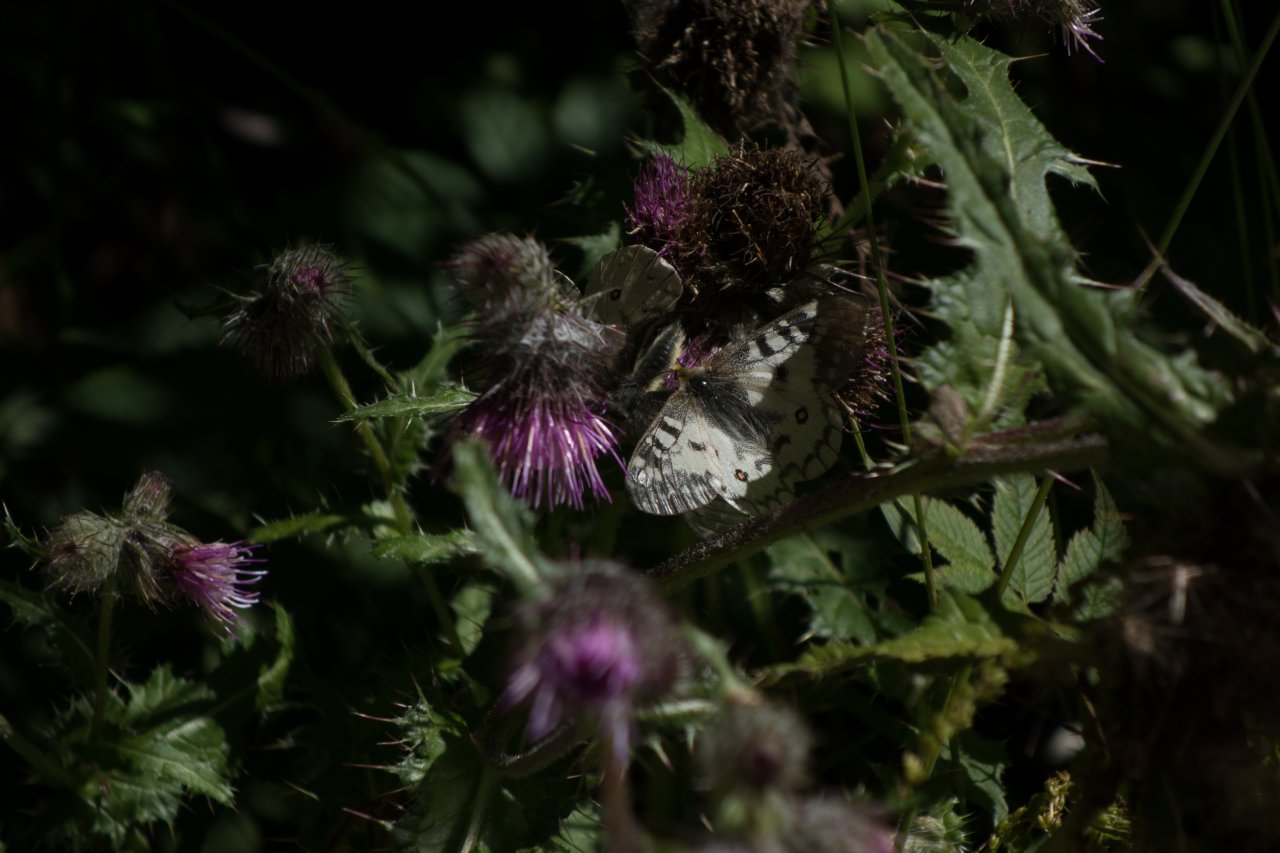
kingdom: Animalia
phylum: Arthropoda
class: Insecta
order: Lepidoptera
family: Papilionidae
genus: Parnassius
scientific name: Parnassius clodius
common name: Clodius Parnassian
